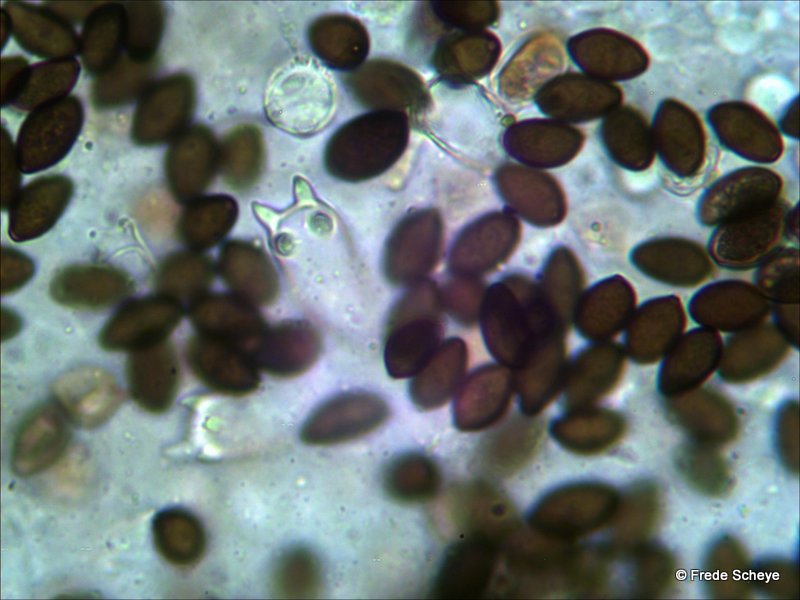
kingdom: Fungi
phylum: Basidiomycota
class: Agaricomycetes
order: Agaricales
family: Bolbitiaceae
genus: Panaeolus
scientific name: Panaeolus acuminatus
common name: høj glanshat
